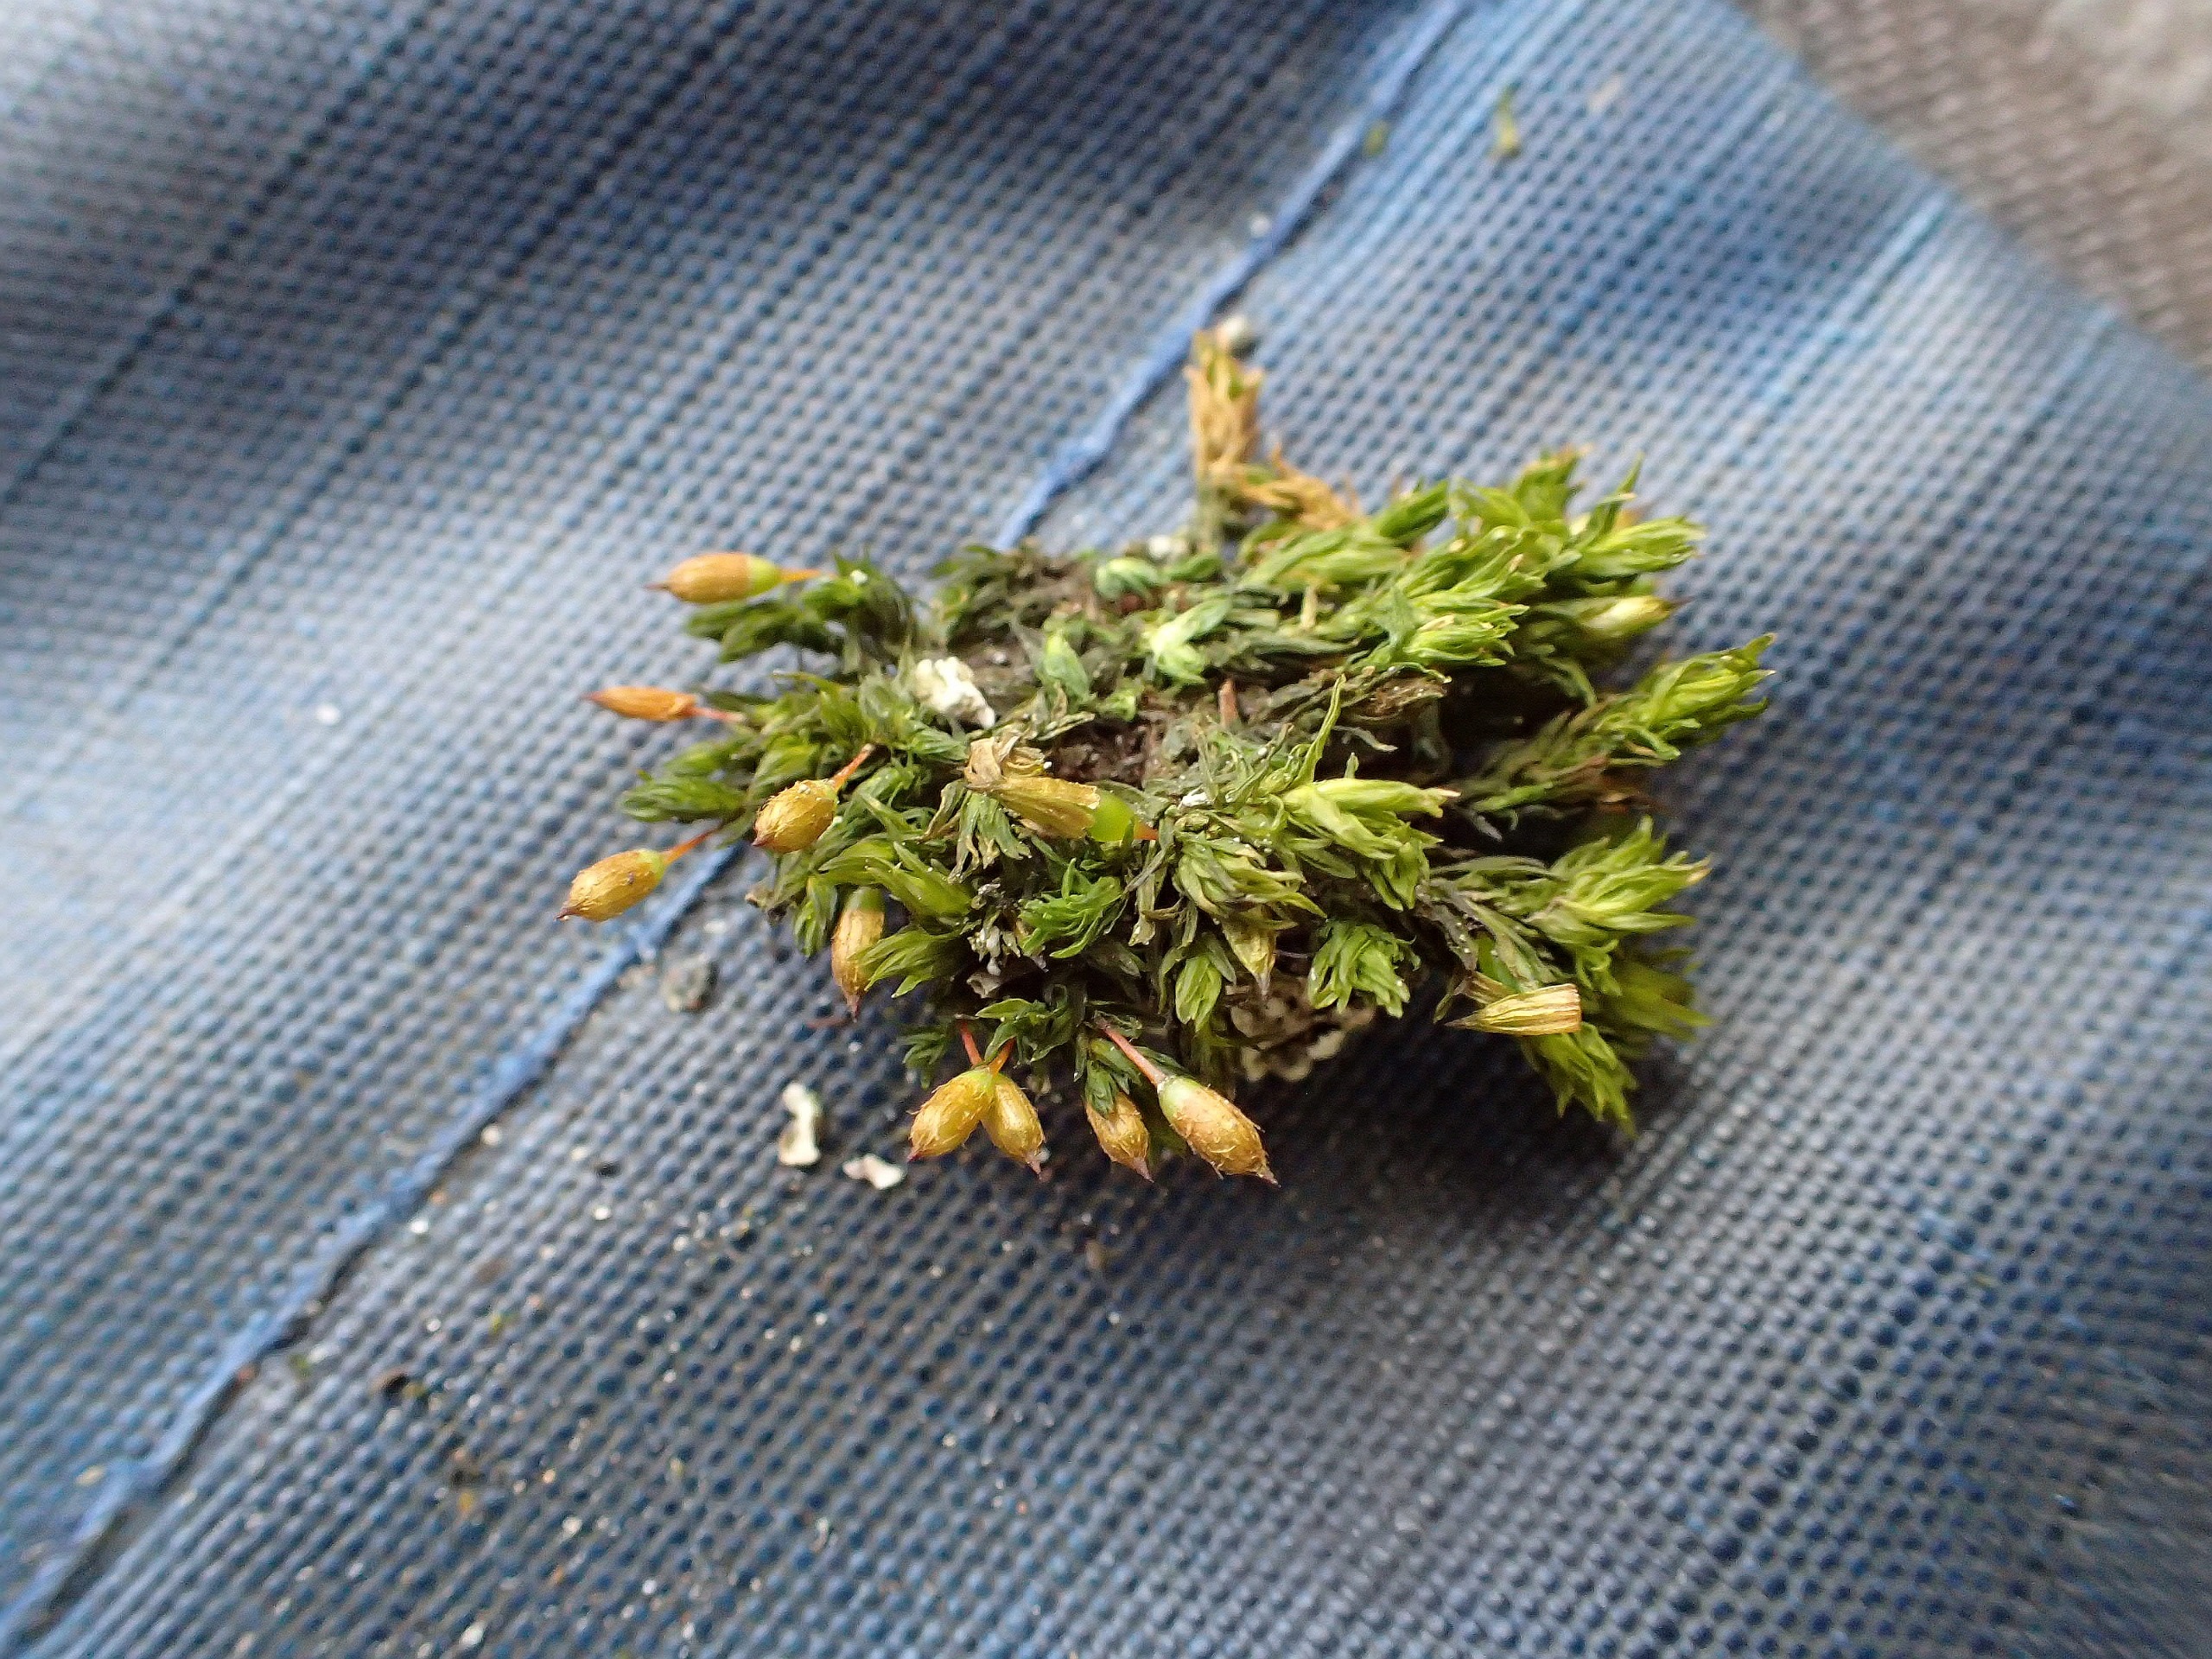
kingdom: Plantae
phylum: Bryophyta
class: Bryopsida
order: Orthotrichales
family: Orthotrichaceae
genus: Orthotrichum
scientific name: Orthotrichum anomalum
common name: Mørk furehætte
